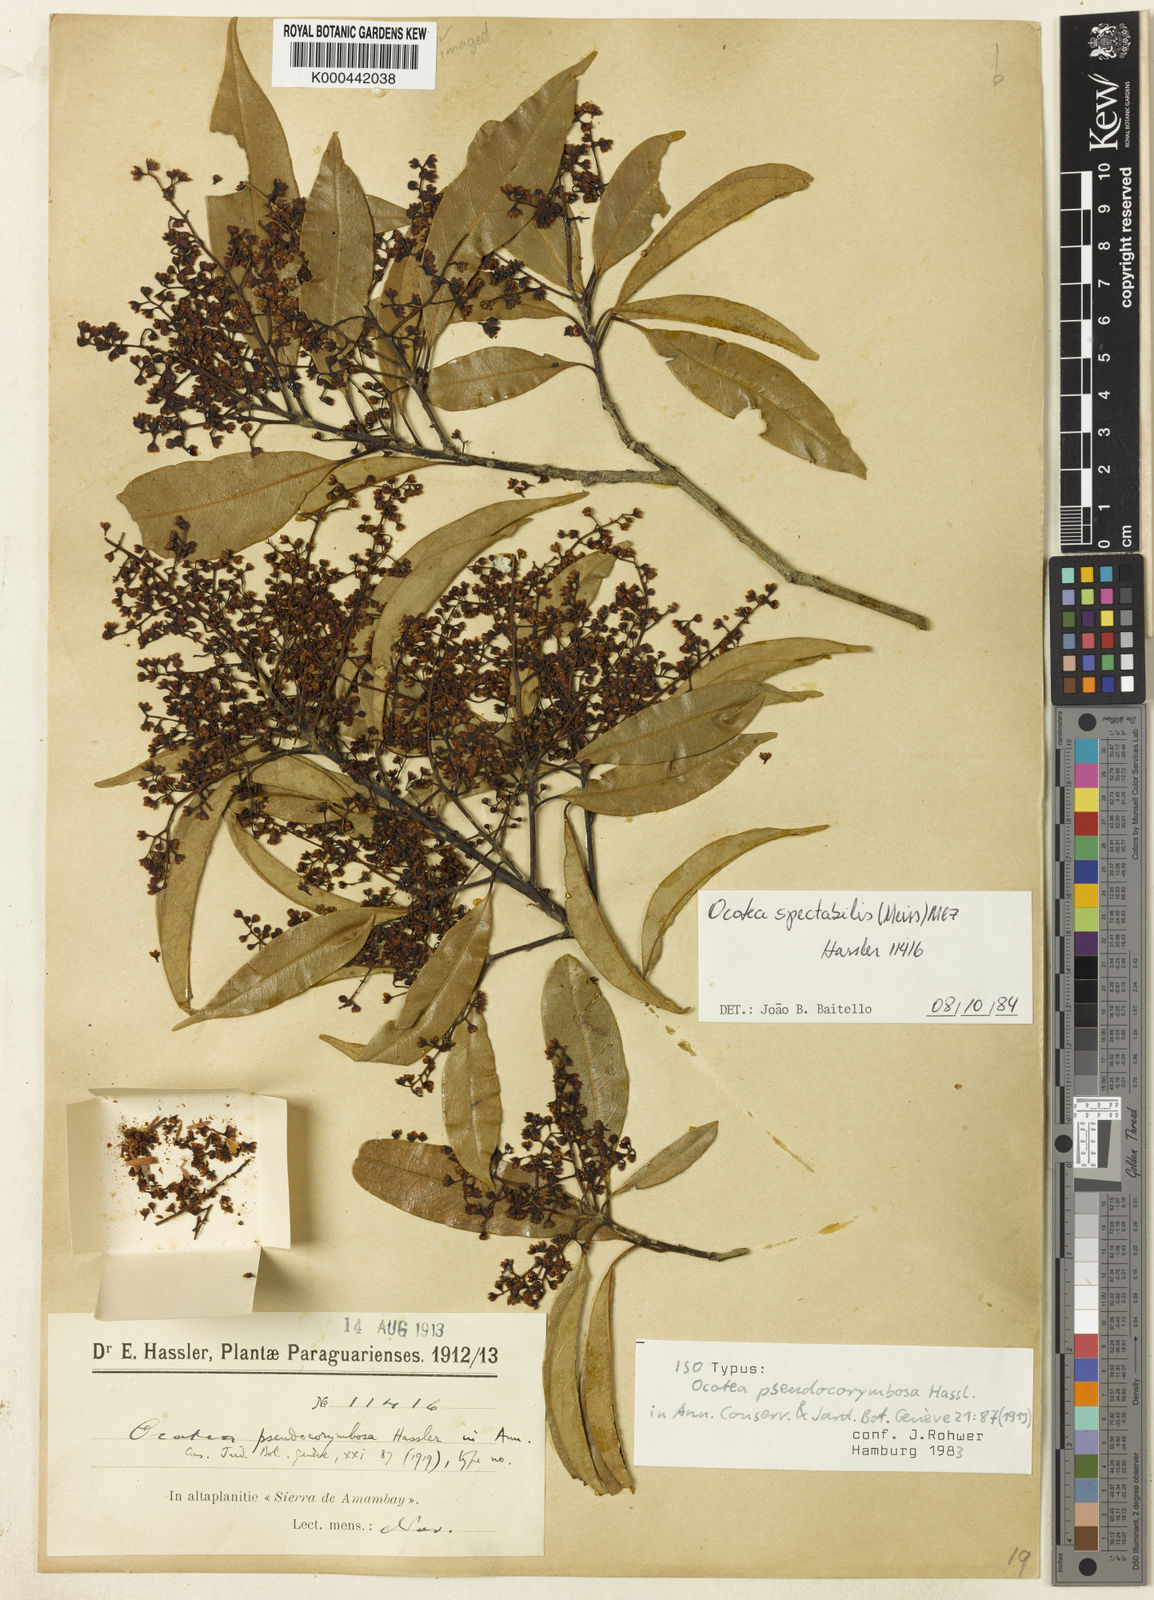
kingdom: Plantae
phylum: Tracheophyta
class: Magnoliopsida
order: Laurales
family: Lauraceae
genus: Ocotea
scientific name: Ocotea diospyrifolia
